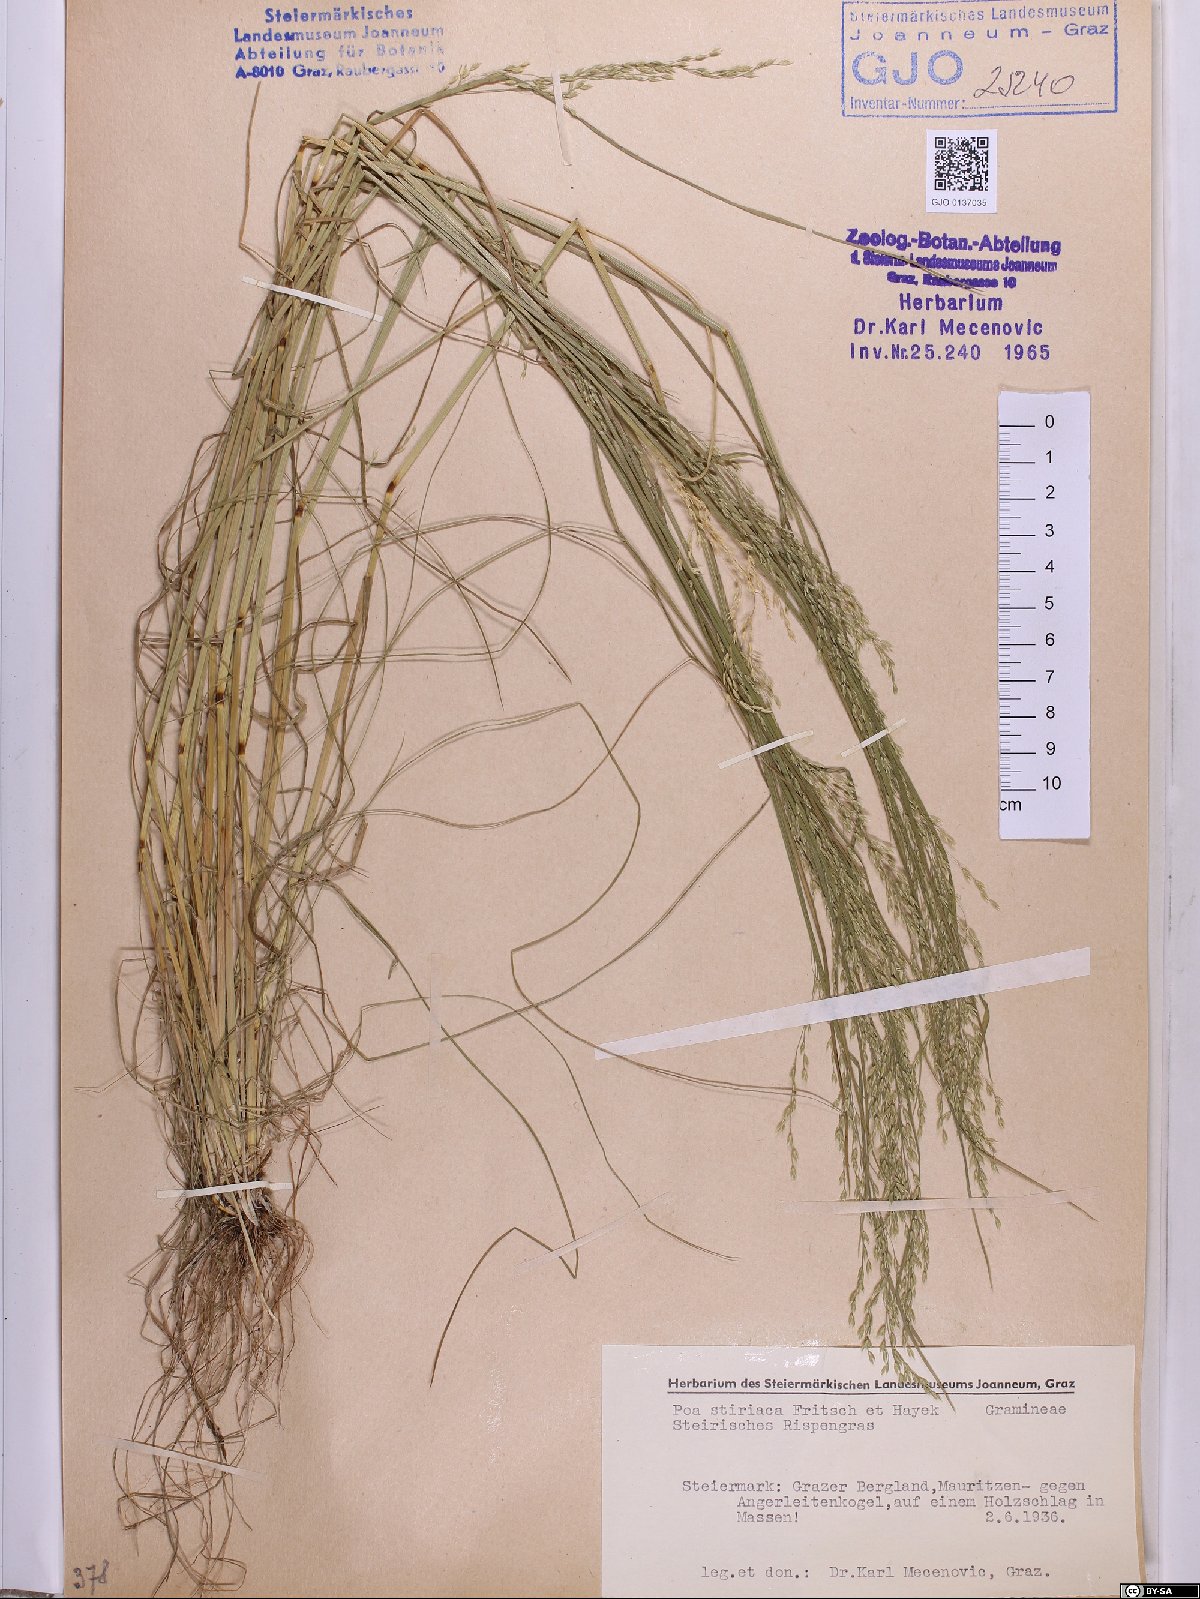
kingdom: Plantae
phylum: Tracheophyta
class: Liliopsida
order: Poales
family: Poaceae
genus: Poa
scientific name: Poa stiriaca
